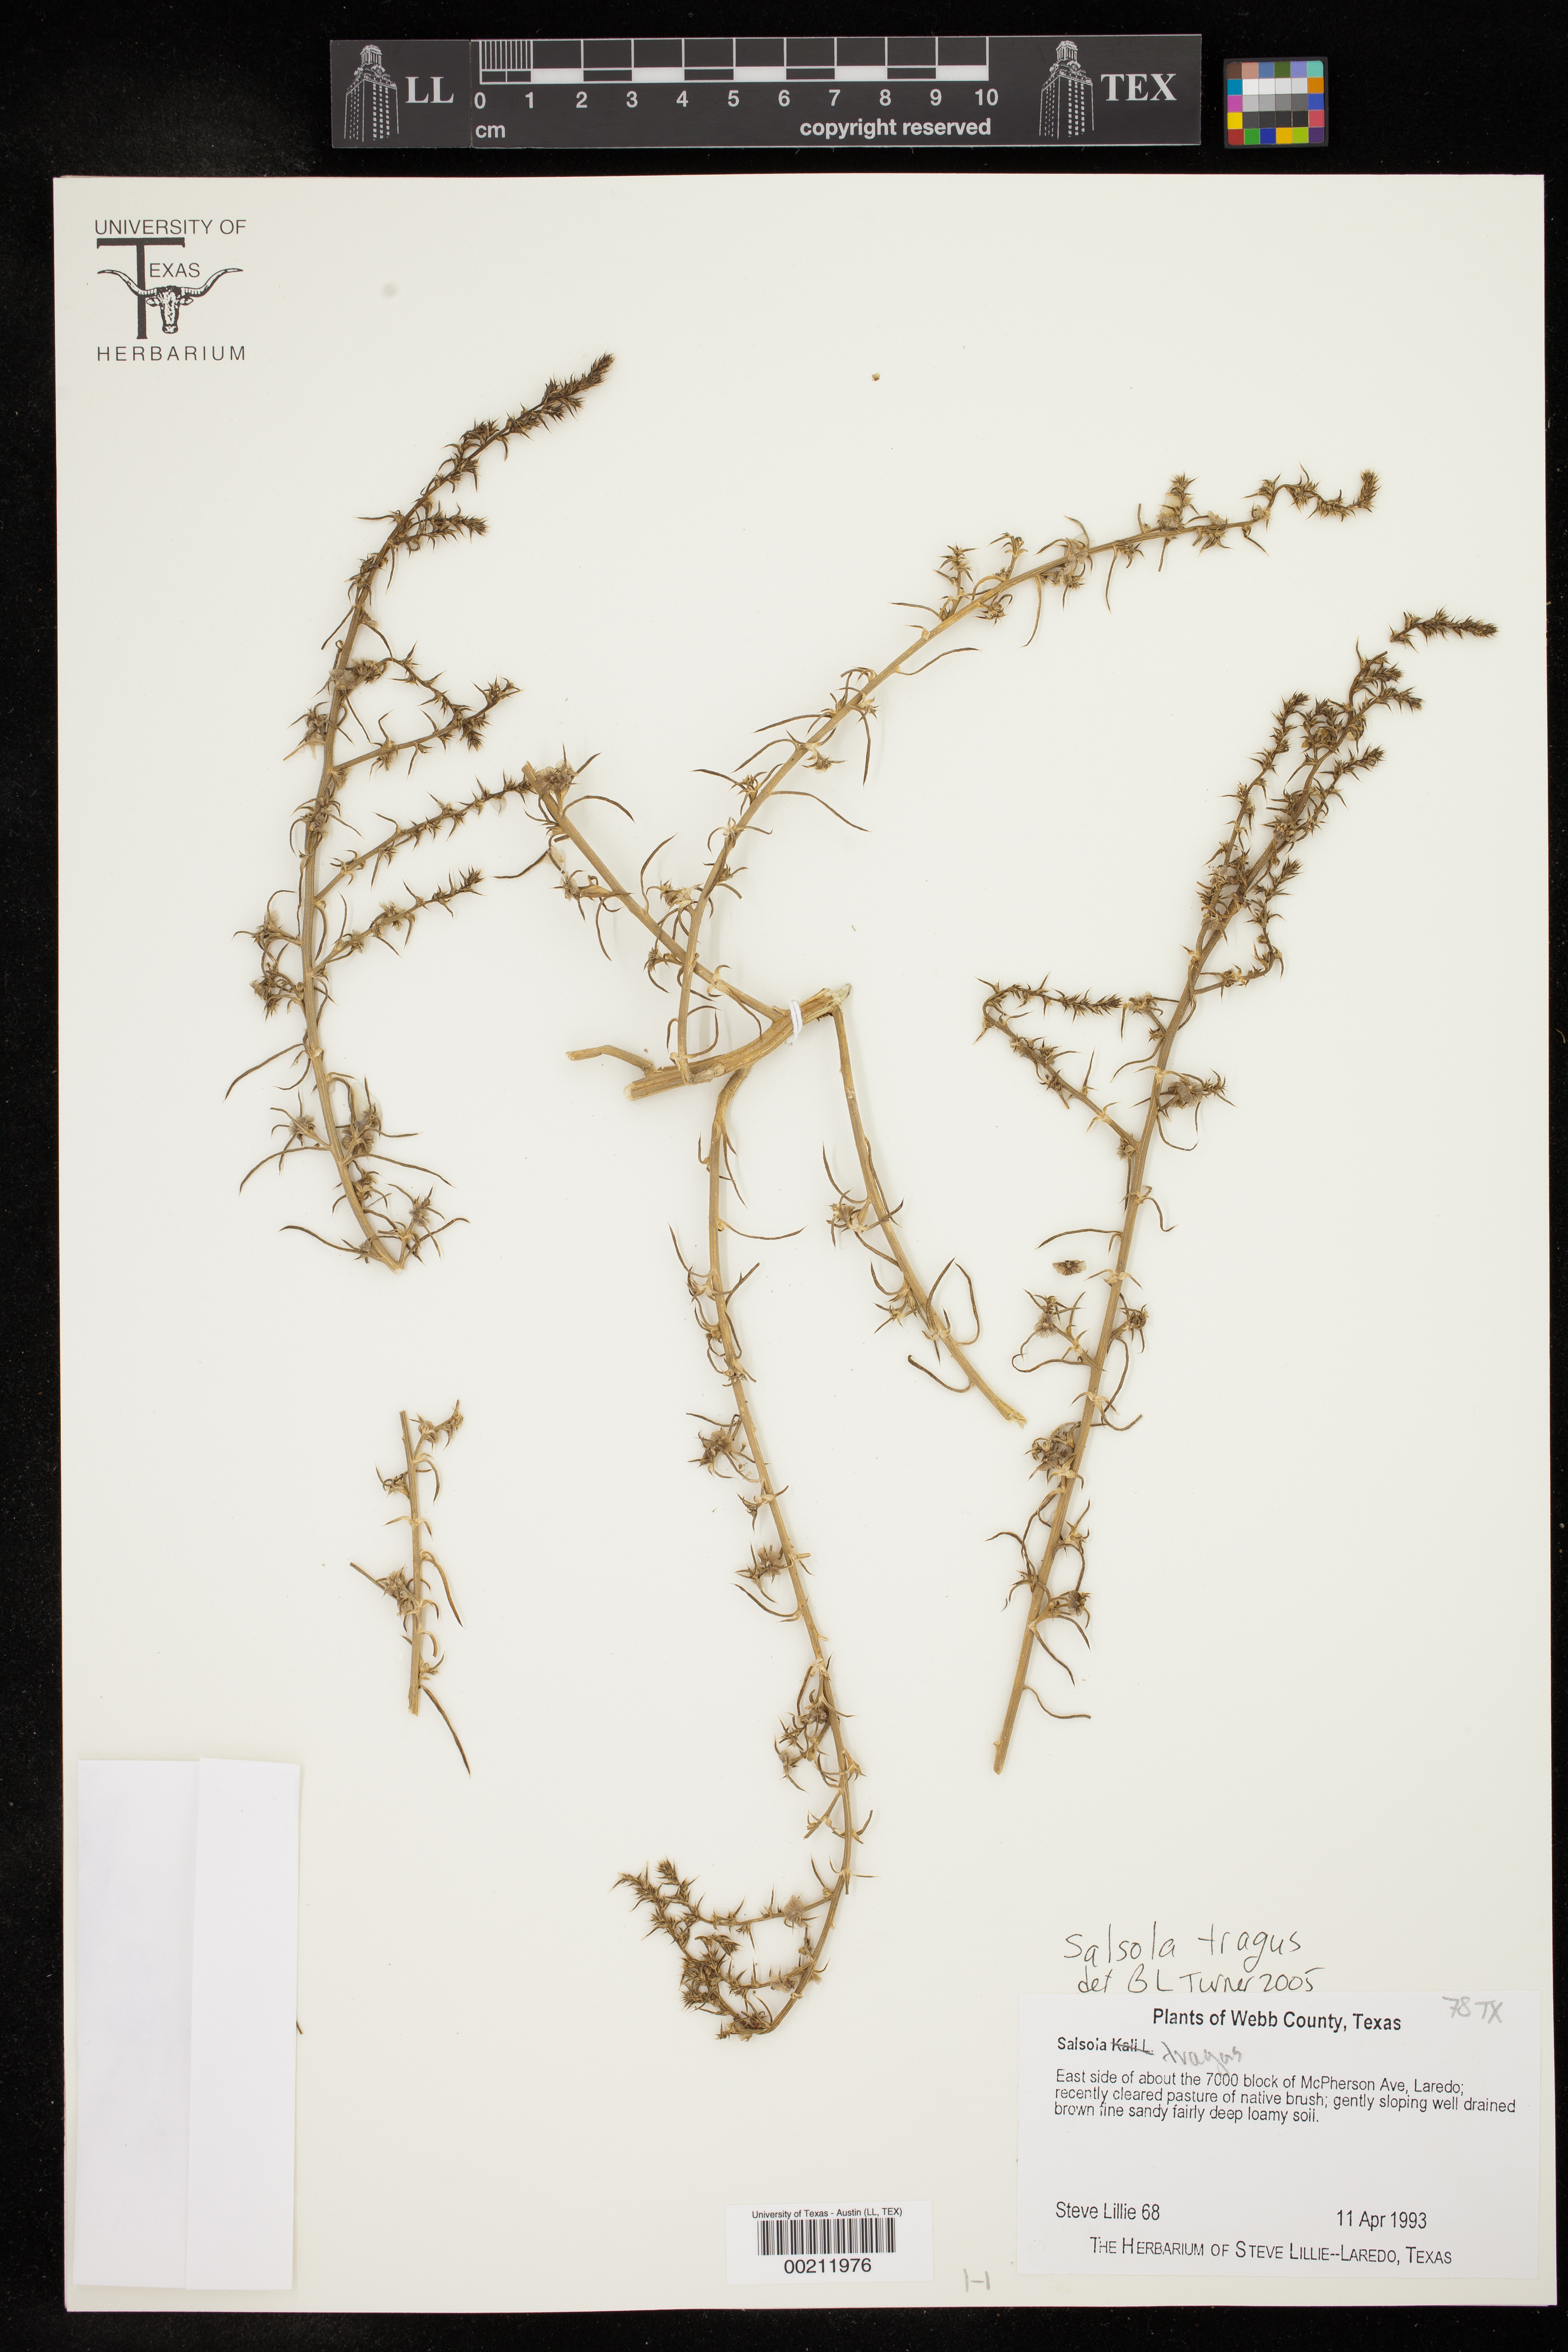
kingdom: Plantae
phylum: Tracheophyta
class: Magnoliopsida
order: Caryophyllales
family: Amaranthaceae
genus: Salsola
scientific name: Salsola tragus
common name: Prickly russian thistle
